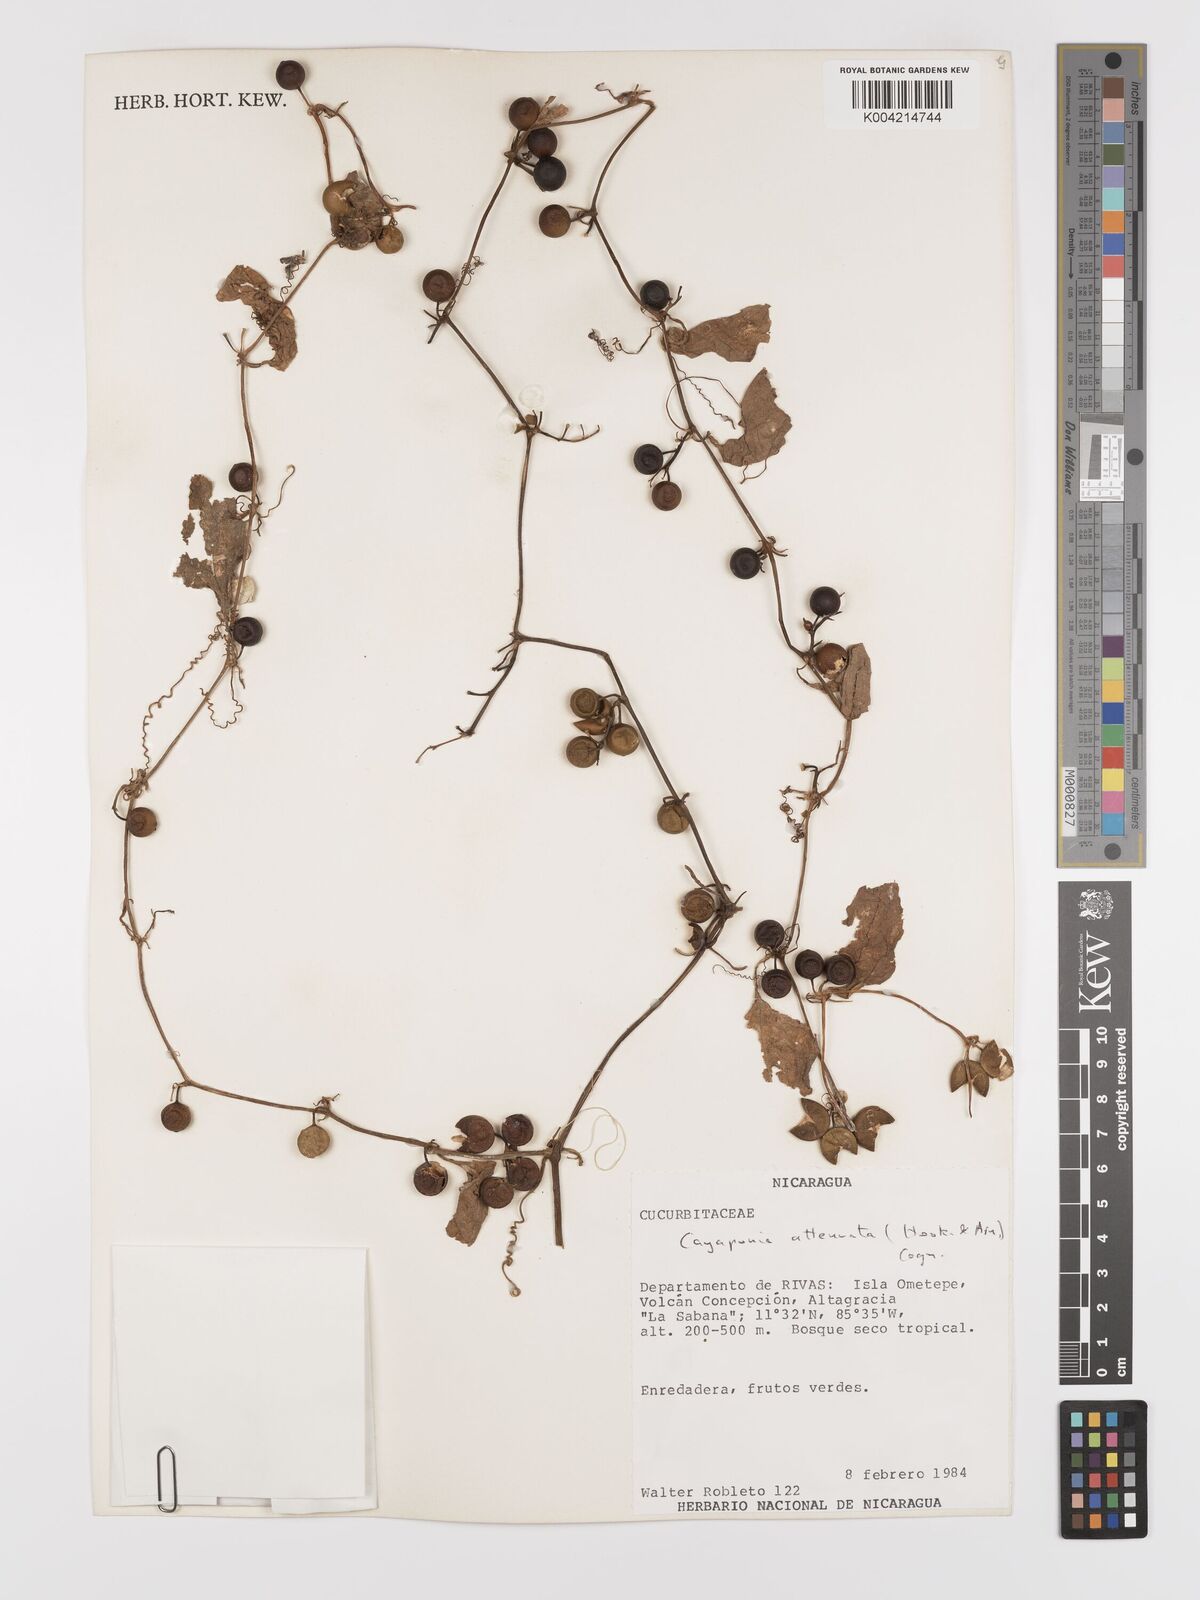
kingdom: Plantae
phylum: Tracheophyta
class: Magnoliopsida
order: Cucurbitales
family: Cucurbitaceae
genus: Cayaponia
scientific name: Cayaponia attenuata
